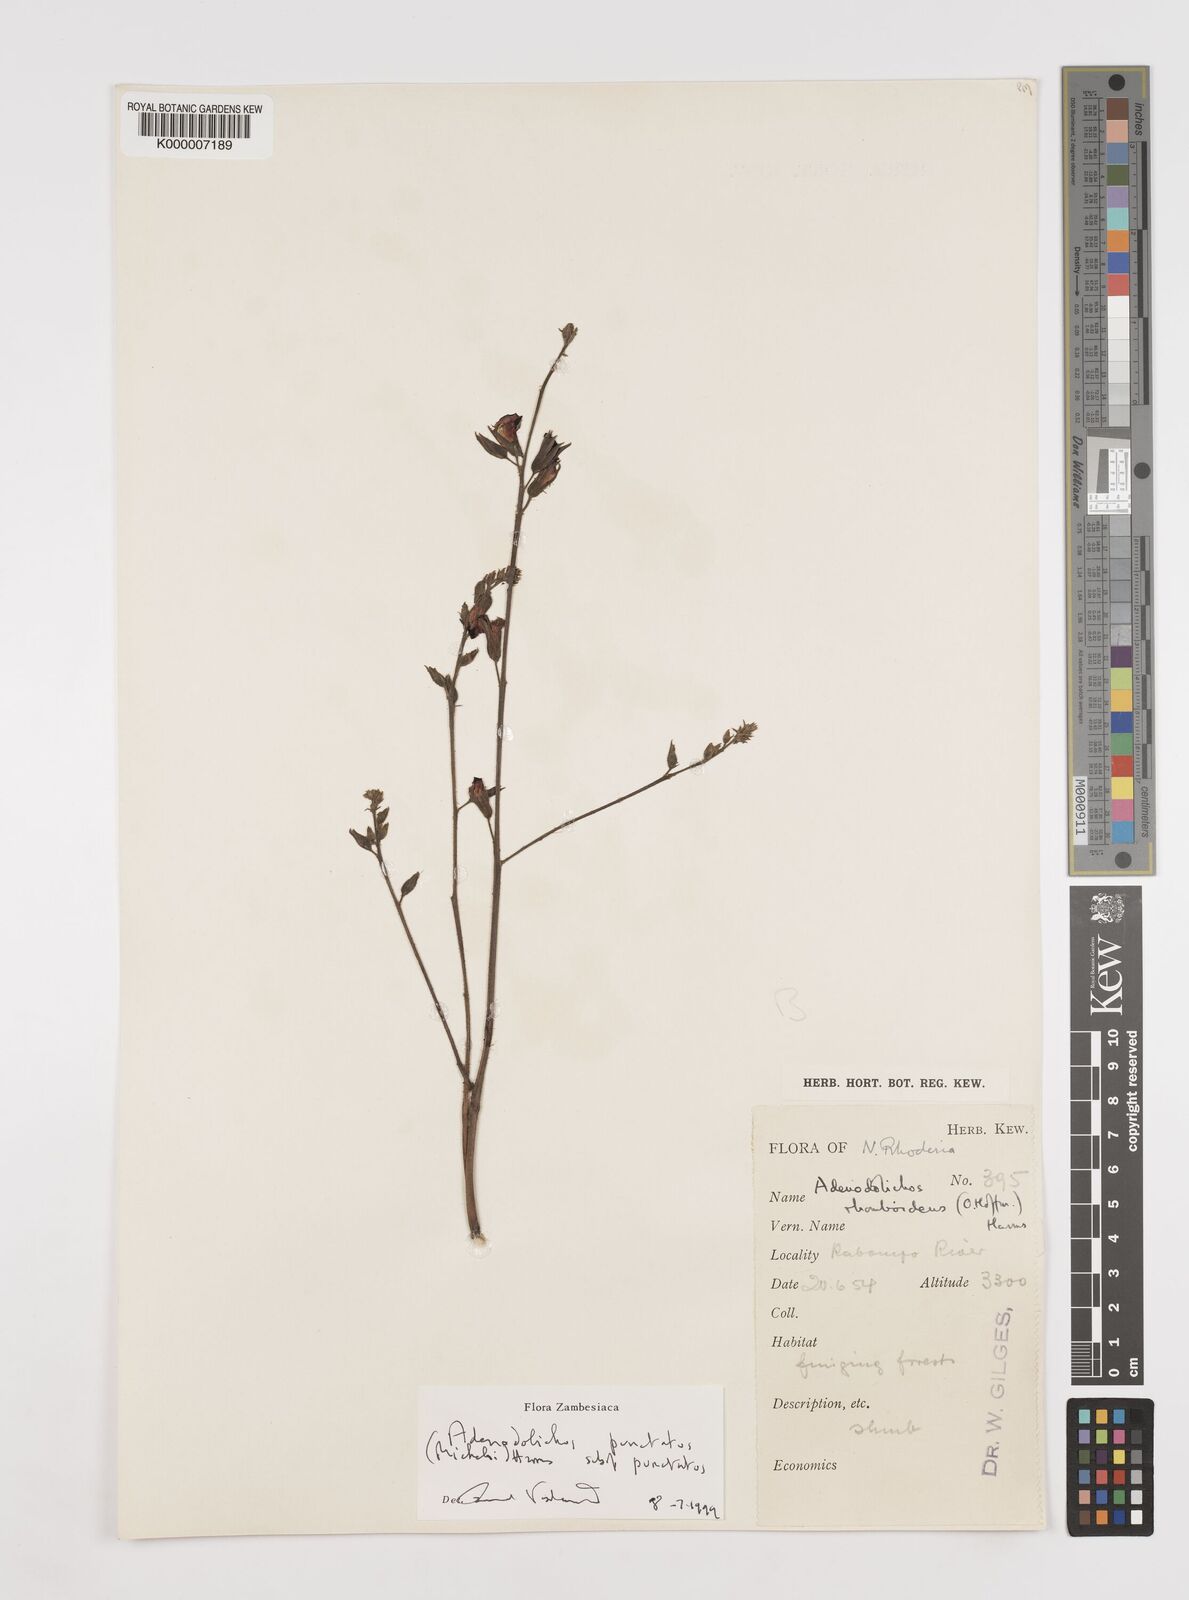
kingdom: Plantae
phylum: Tracheophyta
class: Magnoliopsida
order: Fabales
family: Fabaceae
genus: Adenodolichos
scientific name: Adenodolichos punctatus
